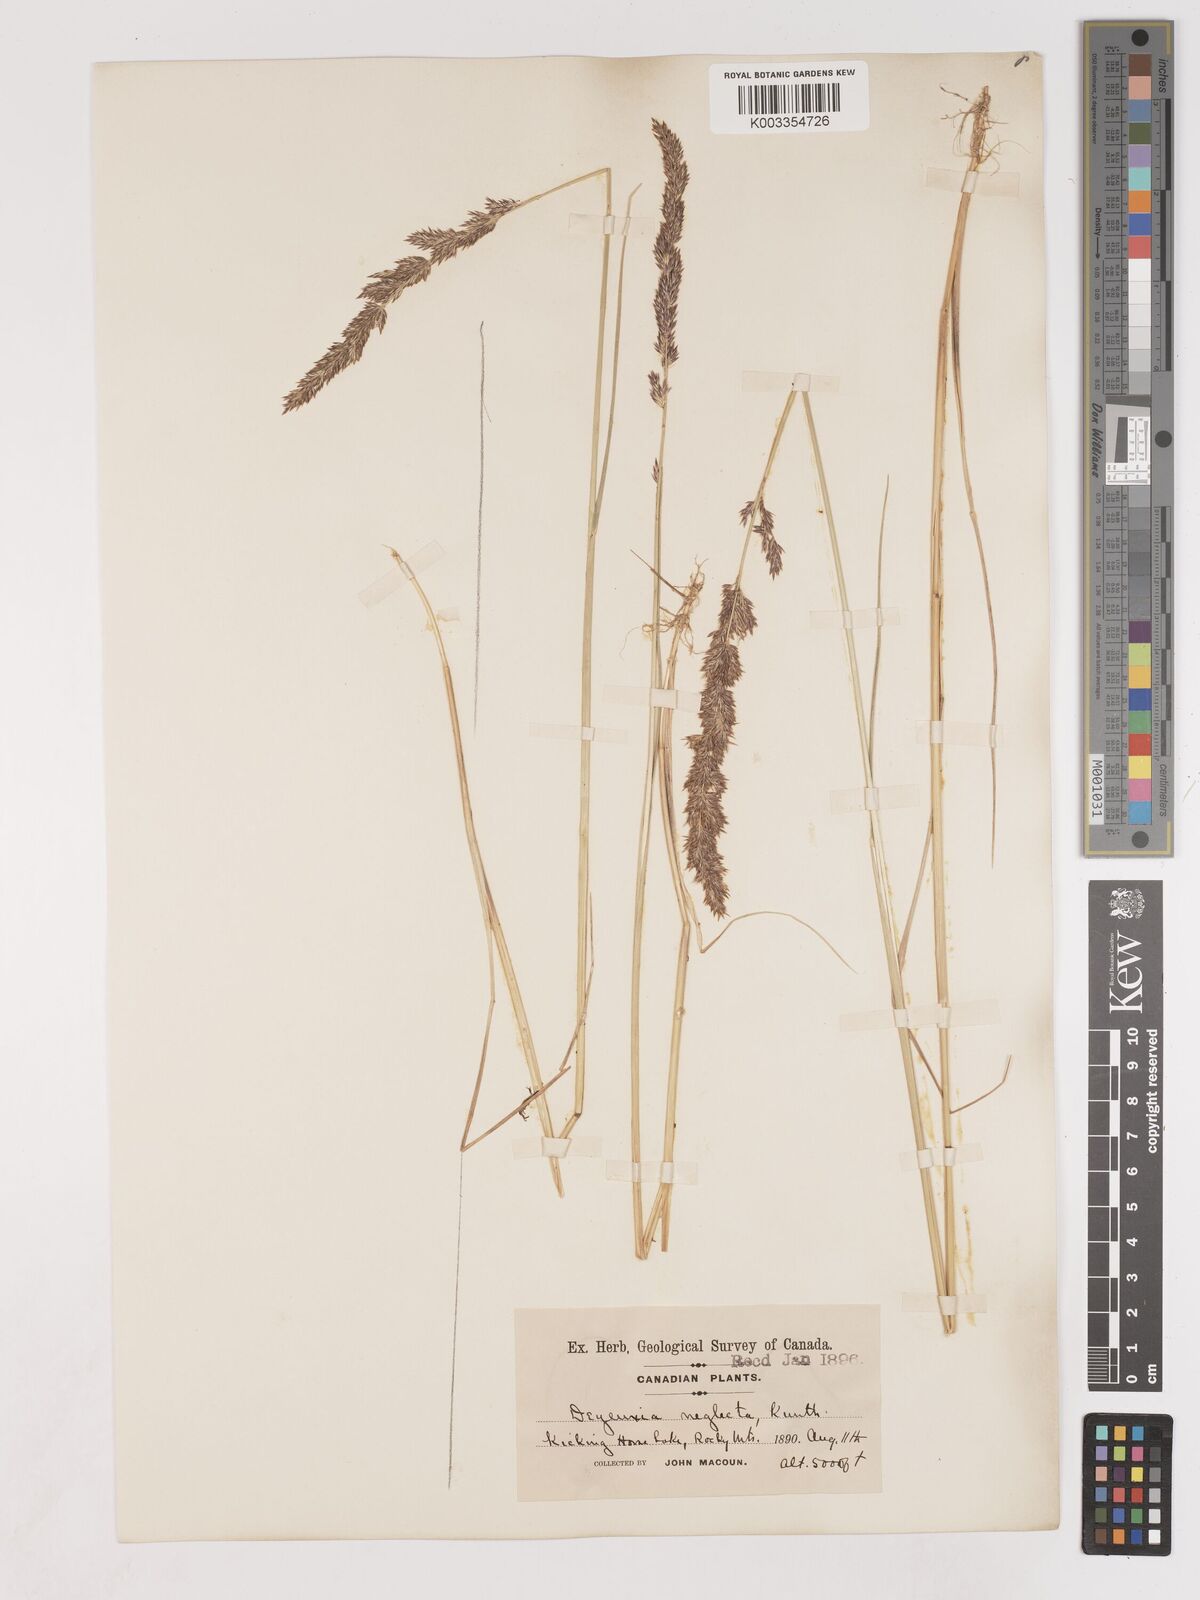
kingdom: Plantae
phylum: Tracheophyta
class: Liliopsida
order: Poales
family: Poaceae
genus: Cinnagrostis
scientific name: Cinnagrostis recta
